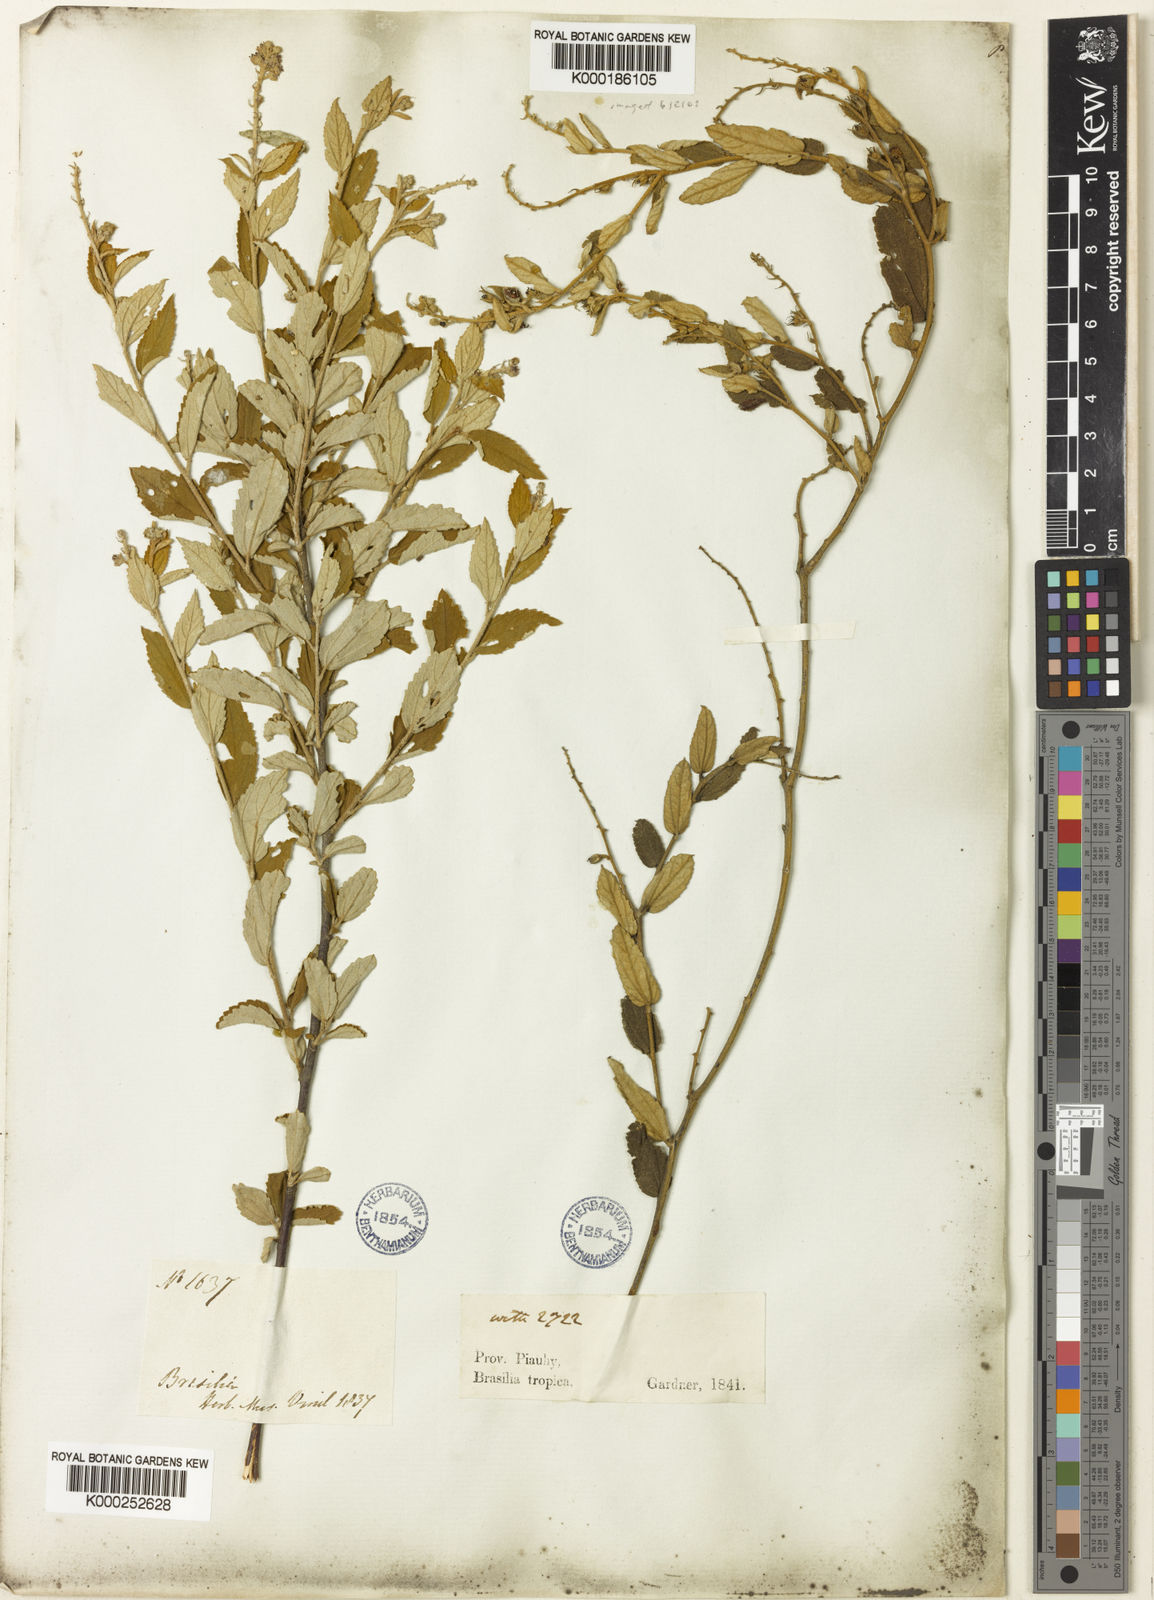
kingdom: Plantae
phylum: Tracheophyta
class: Magnoliopsida
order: Malpighiales
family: Euphorbiaceae
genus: Croton
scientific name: Croton
